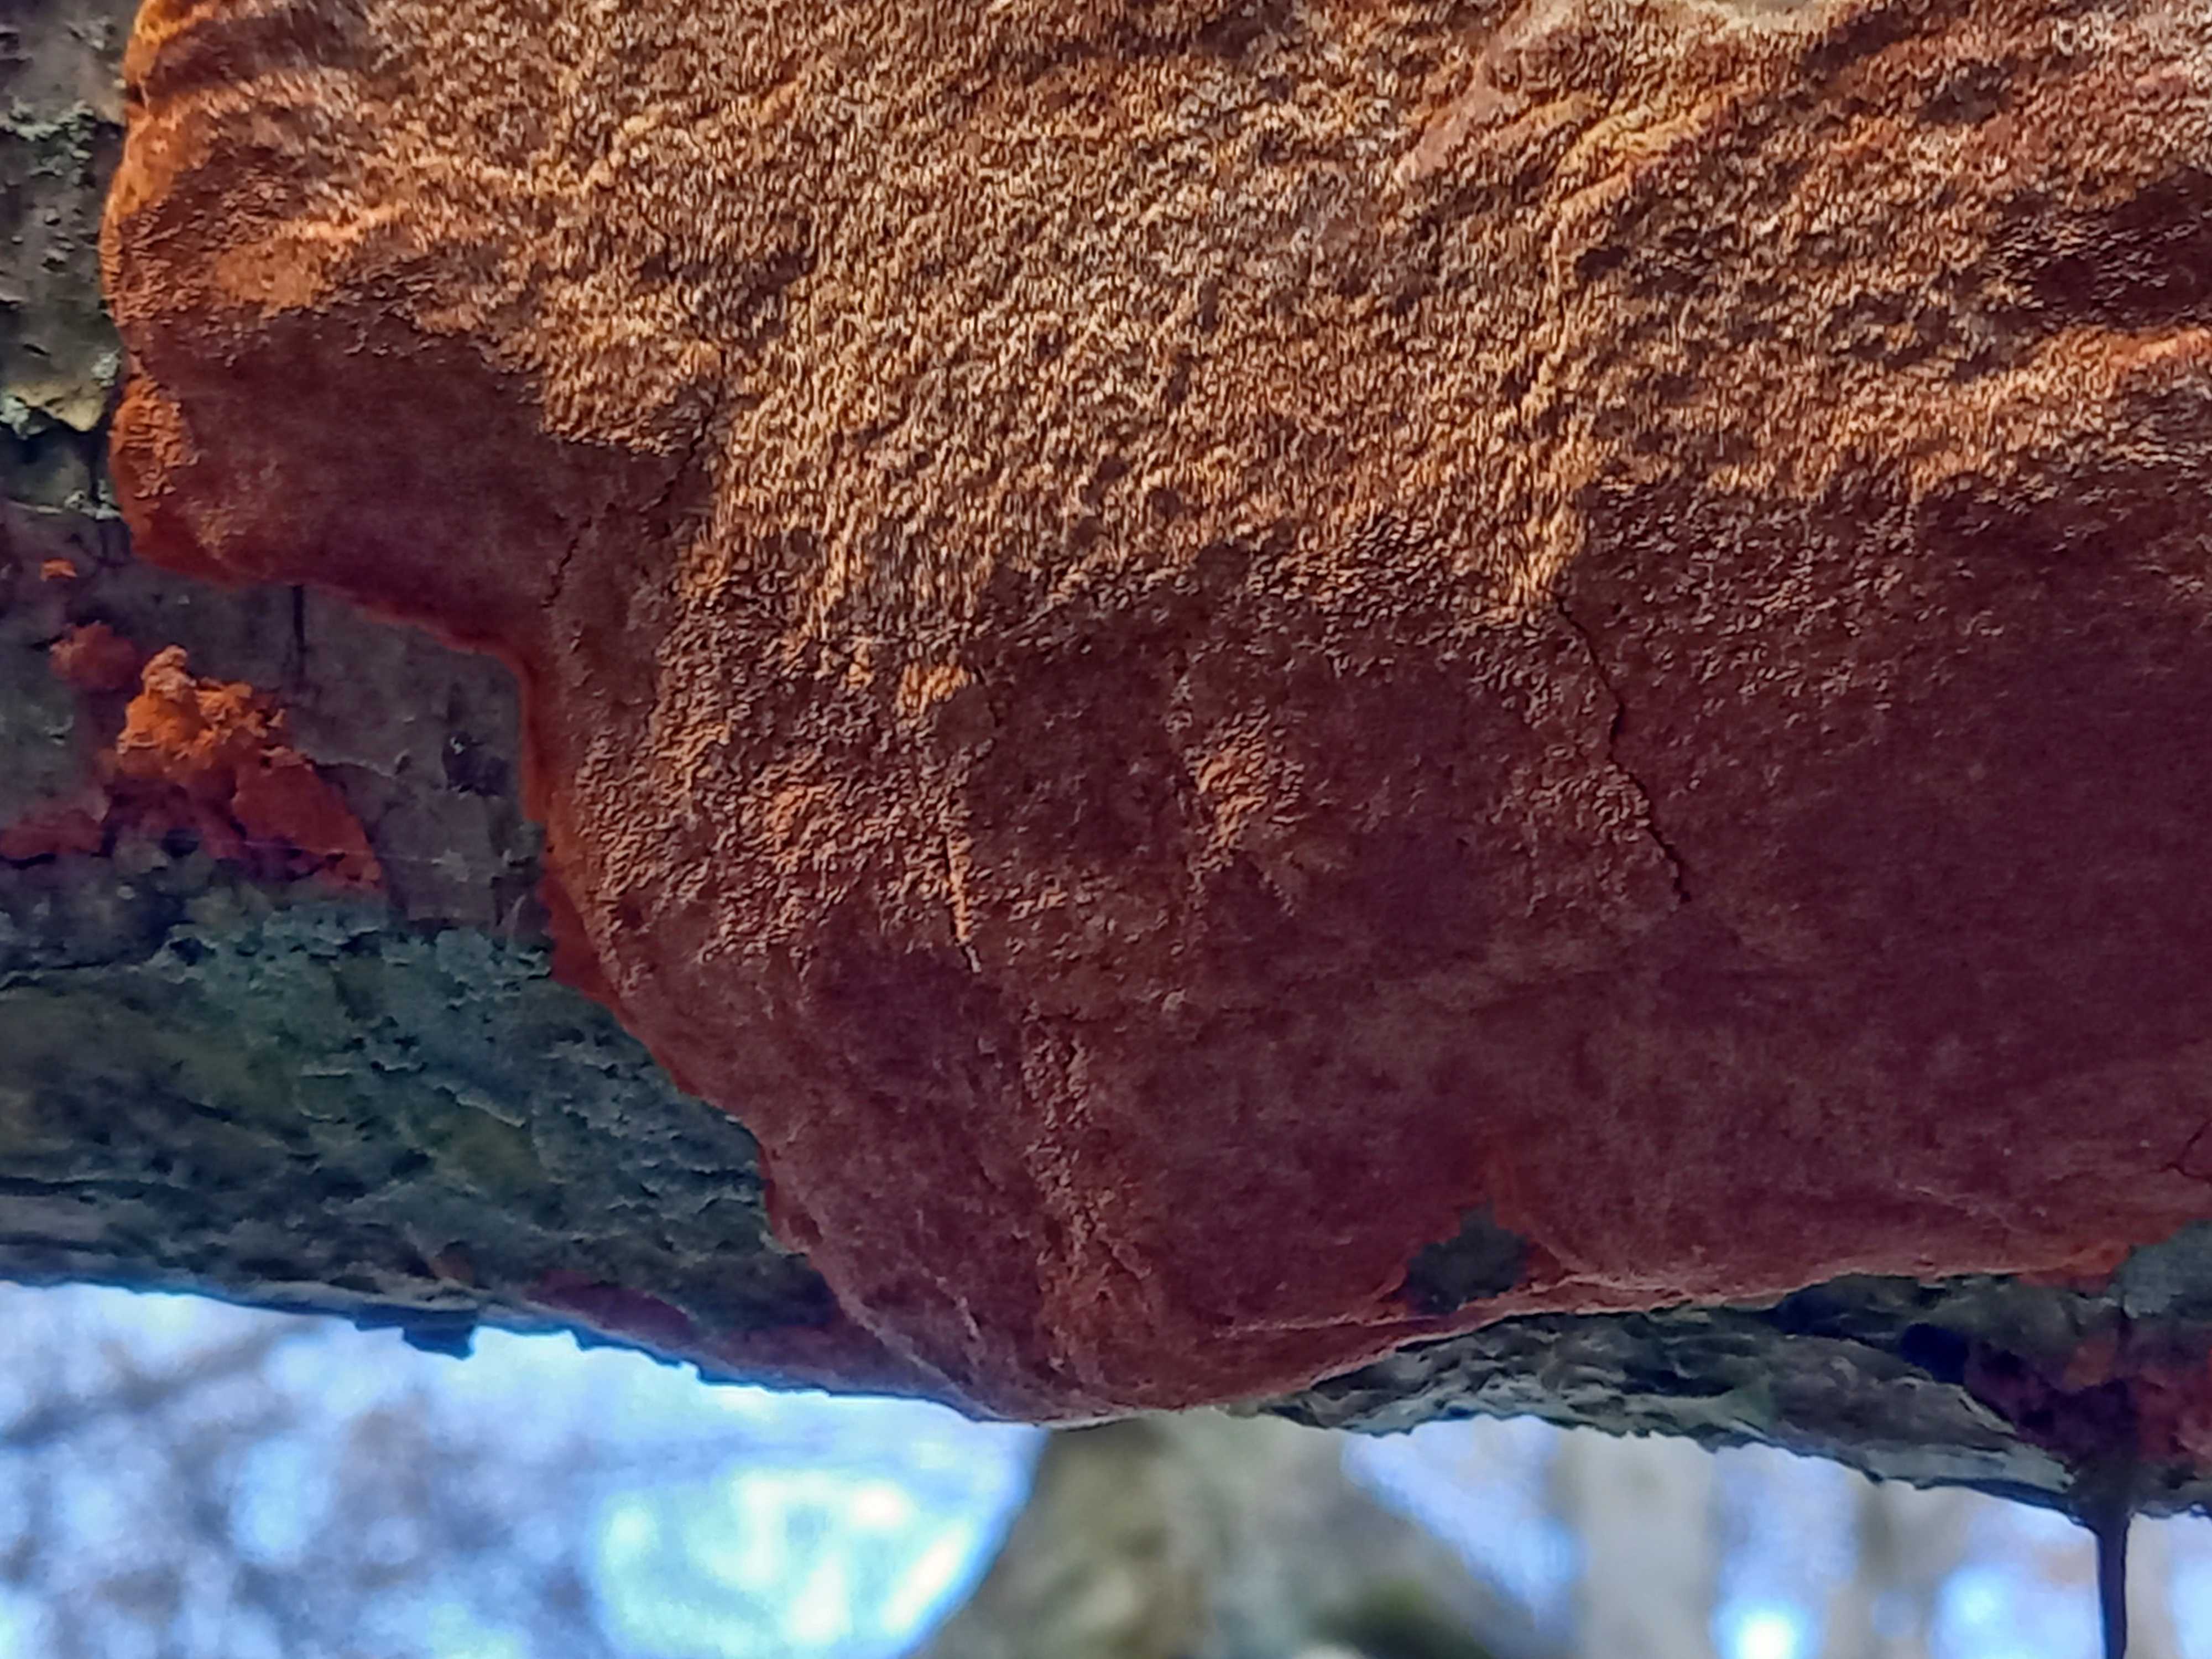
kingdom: Fungi
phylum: Basidiomycota
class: Agaricomycetes
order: Hymenochaetales
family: Hymenochaetaceae
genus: Fuscoporia
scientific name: Fuscoporia ferrea
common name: skorpe-ildporesvamp
